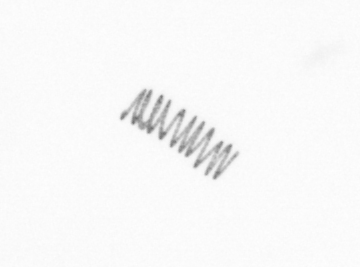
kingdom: Chromista
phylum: Ochrophyta
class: Bacillariophyceae
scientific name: Bacillariophyceae
